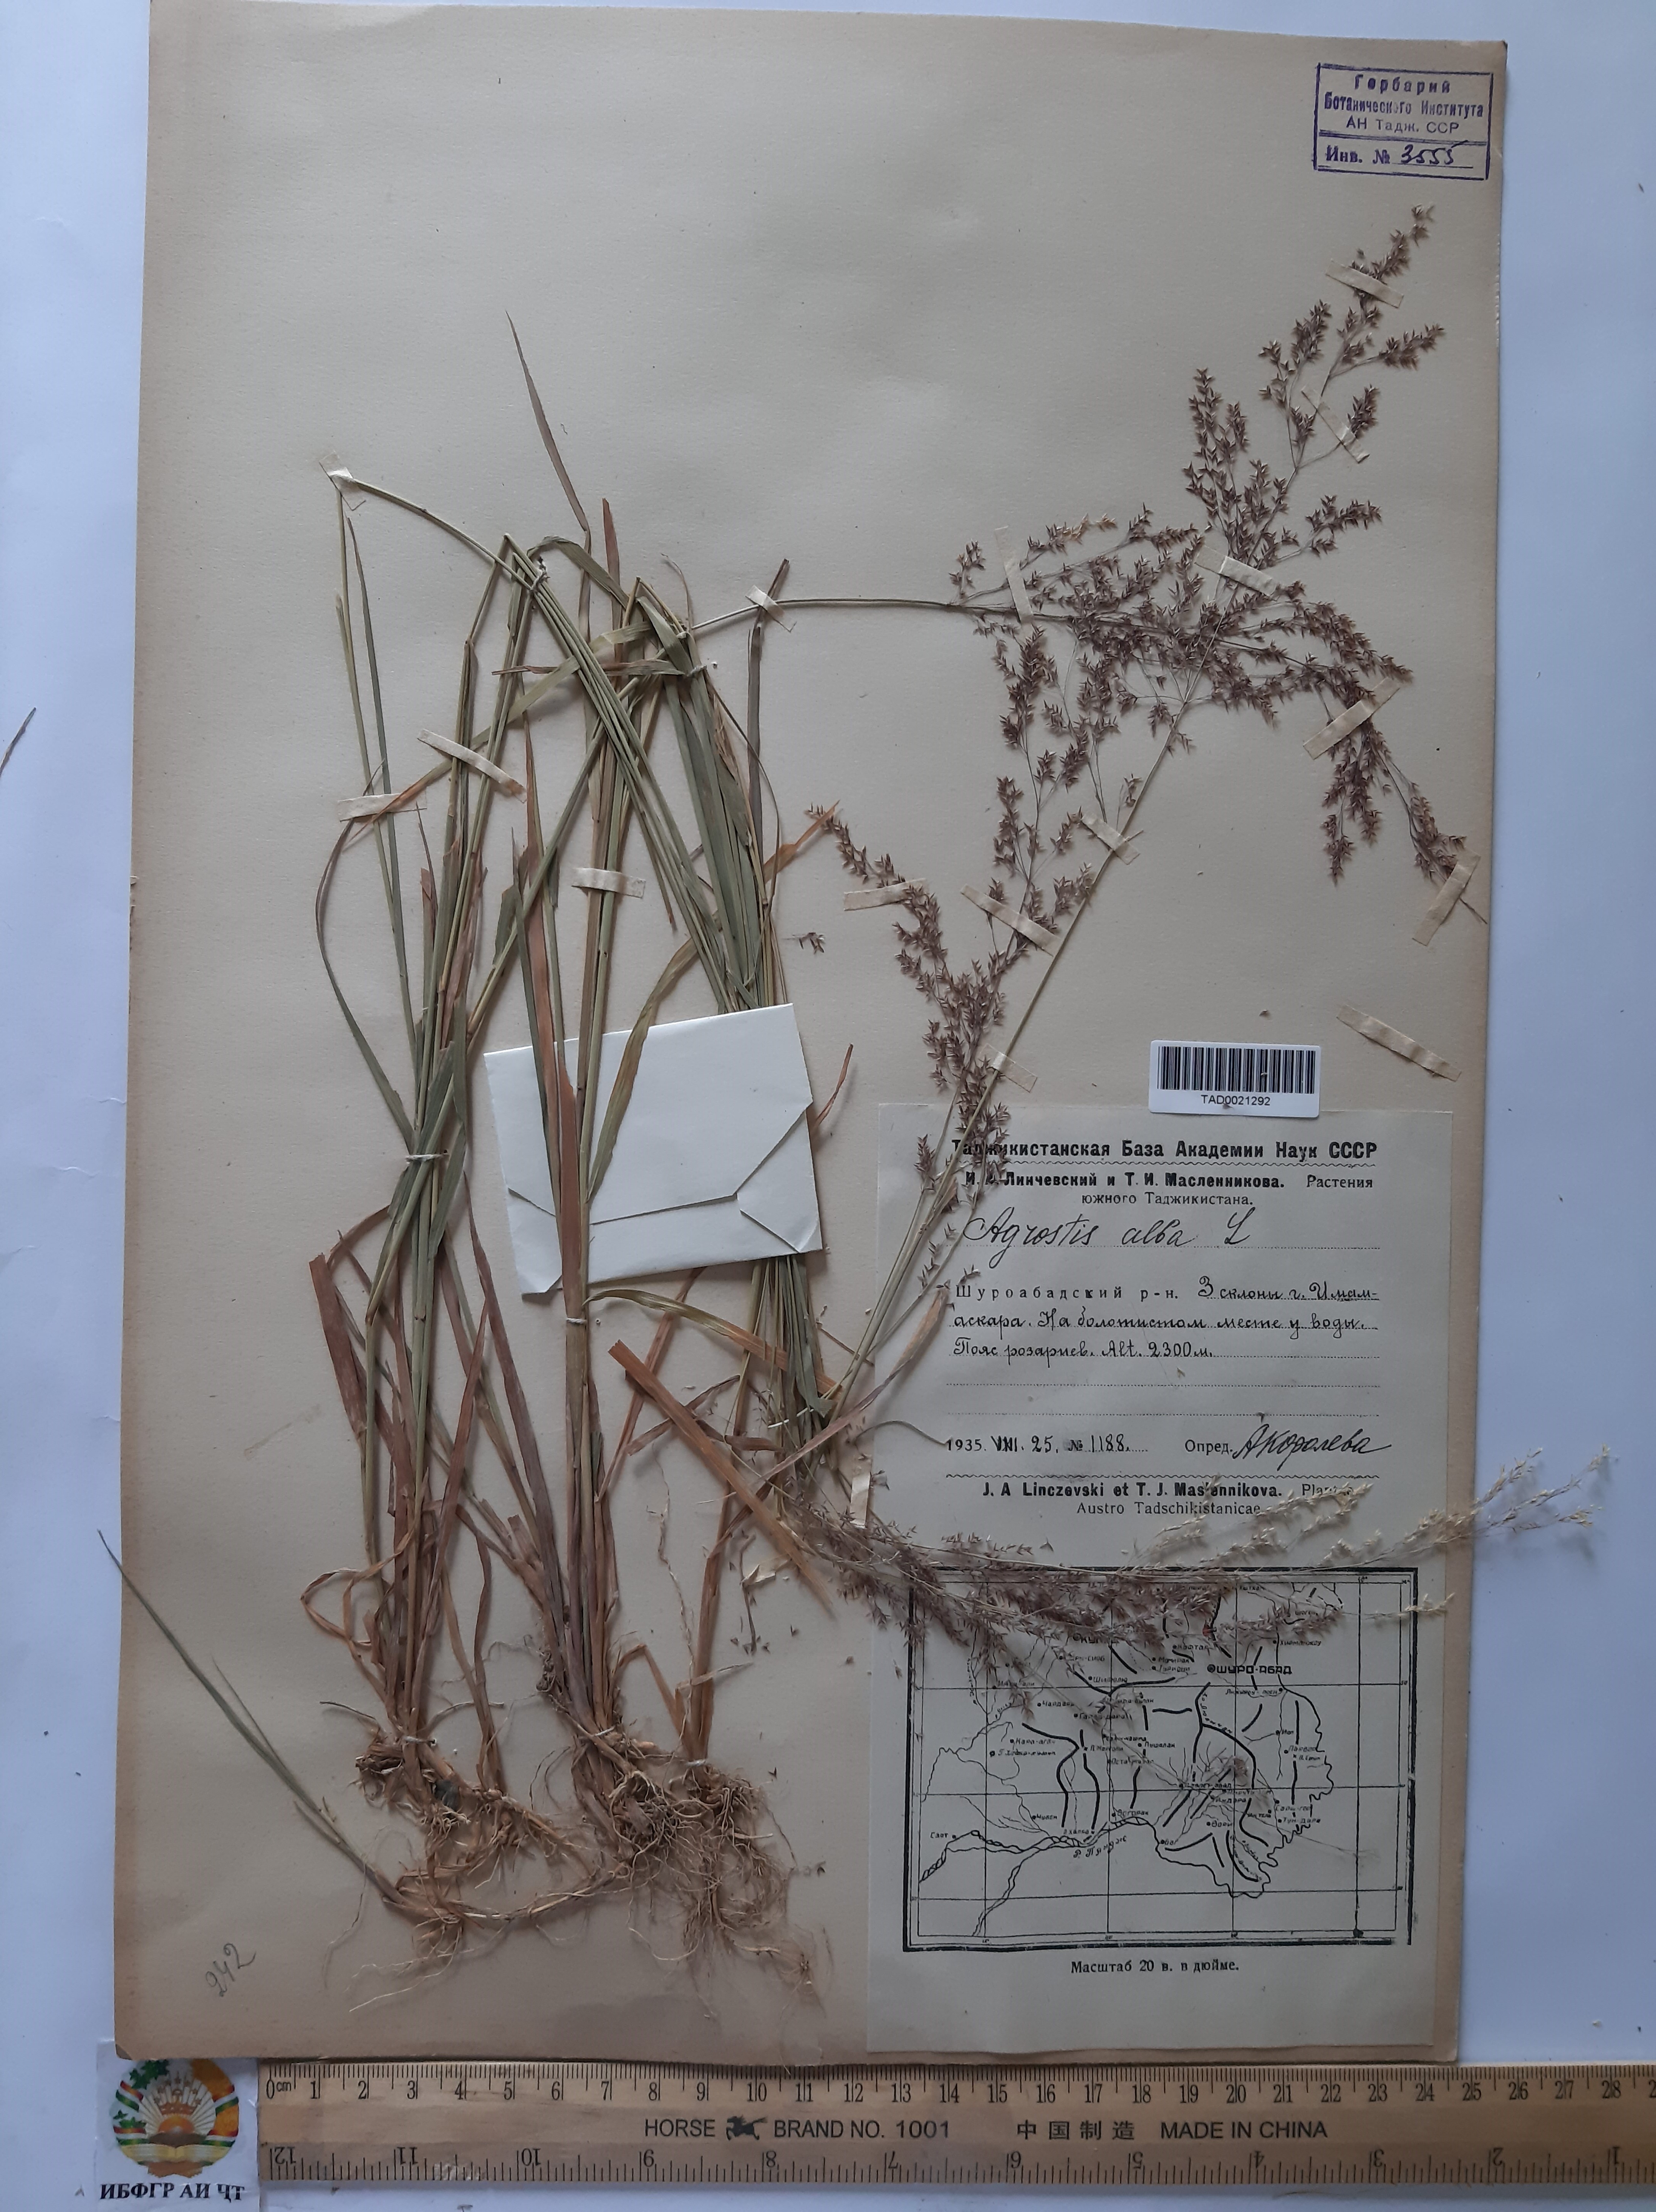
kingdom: Plantae
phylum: Tracheophyta
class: Liliopsida
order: Poales
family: Poaceae
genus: Poa
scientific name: Poa nemoralis
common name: Wood bluegrass
